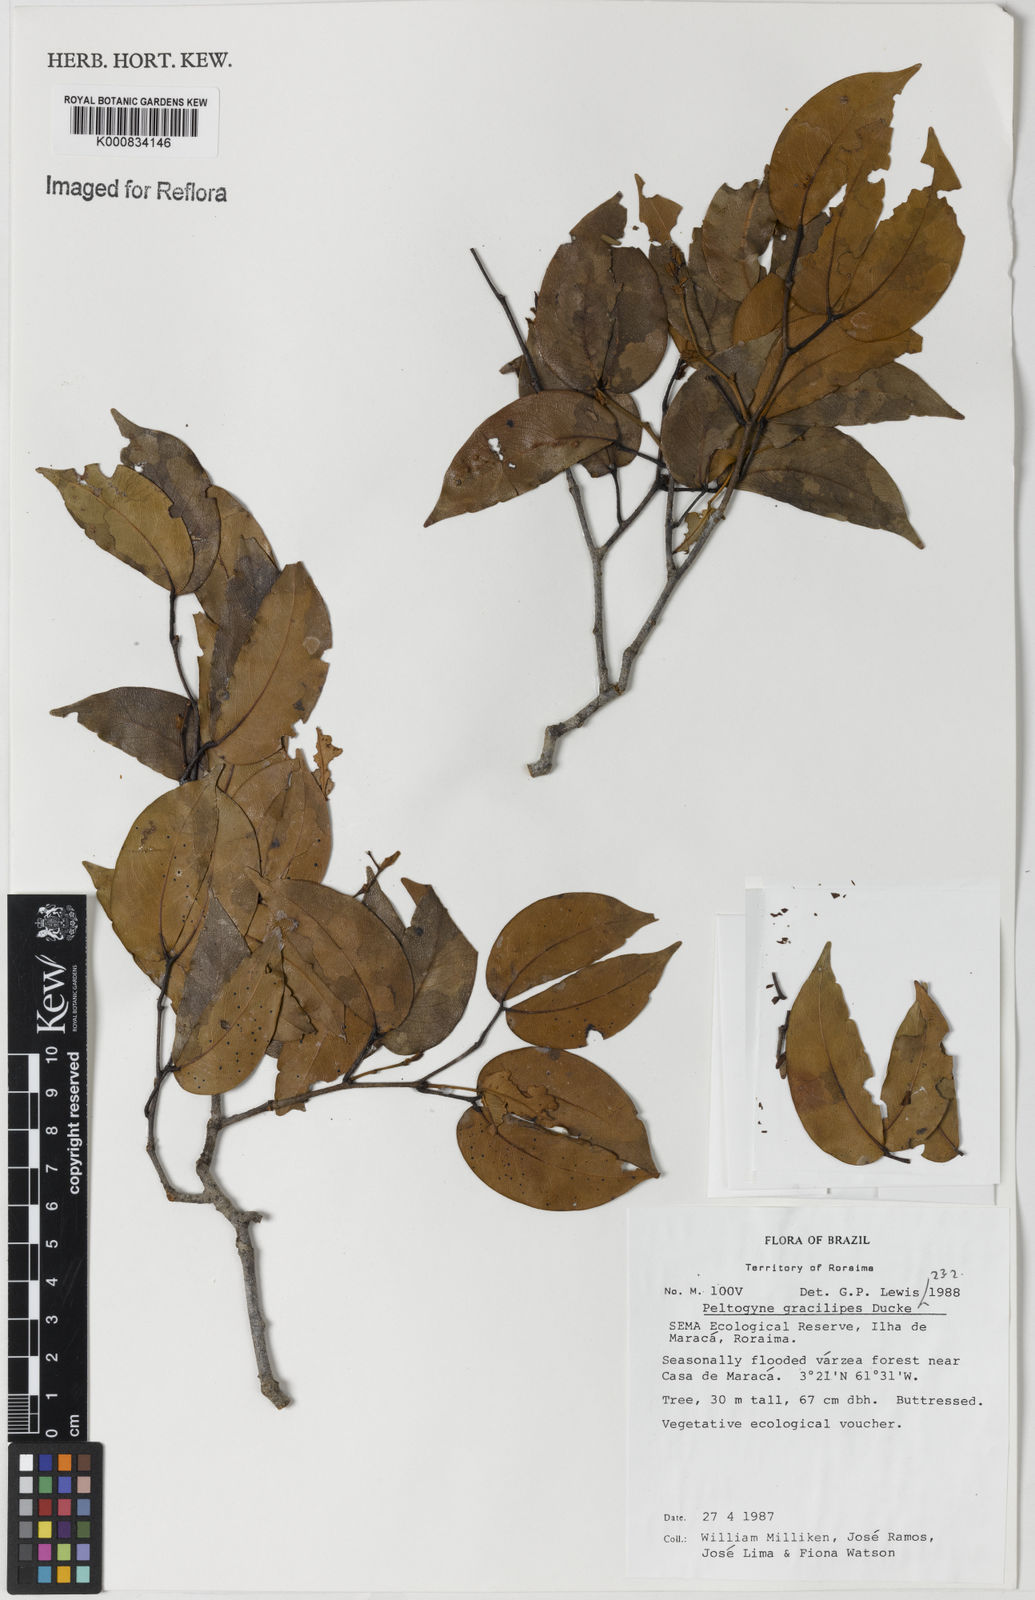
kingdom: Plantae
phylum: Tracheophyta
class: Magnoliopsida
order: Fabales
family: Fabaceae
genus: Peltogyne
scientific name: Peltogyne gracilipes
